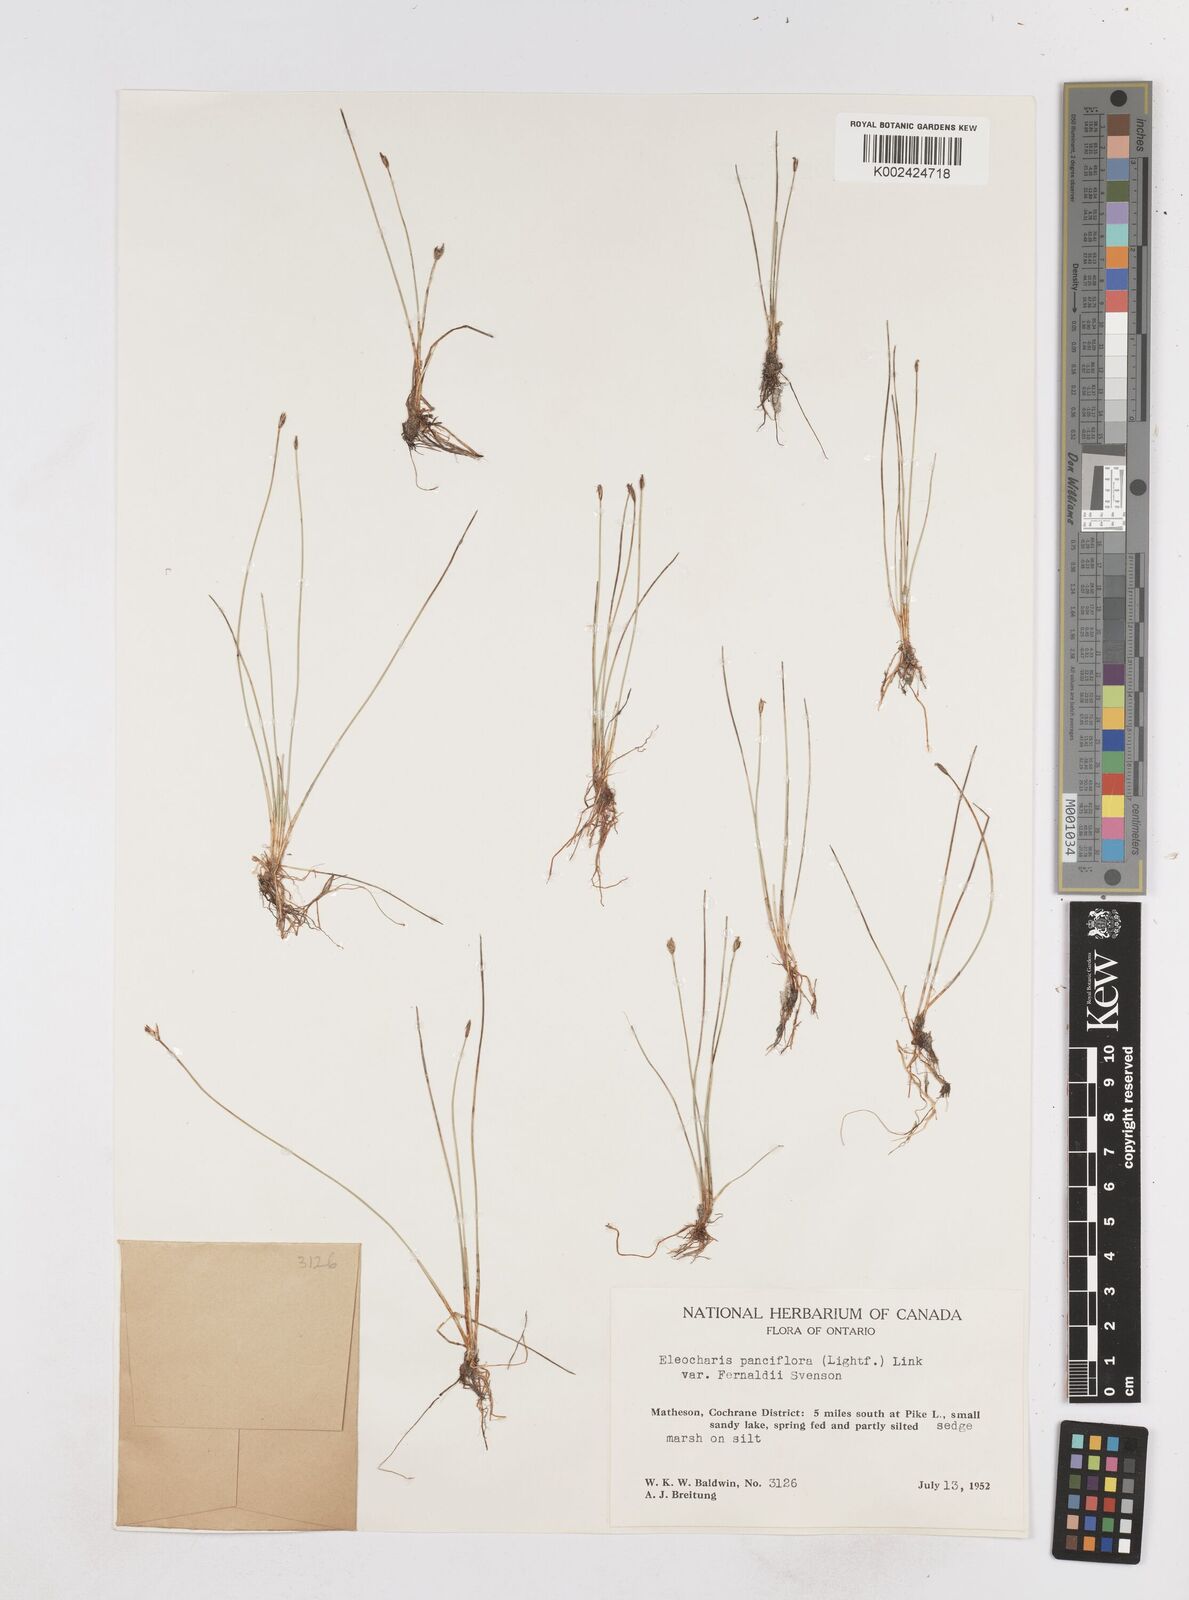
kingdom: Plantae
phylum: Tracheophyta
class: Liliopsida
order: Poales
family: Cyperaceae
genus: Eleocharis
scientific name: Eleocharis quinqueflora
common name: Few-flowered spike-rush
